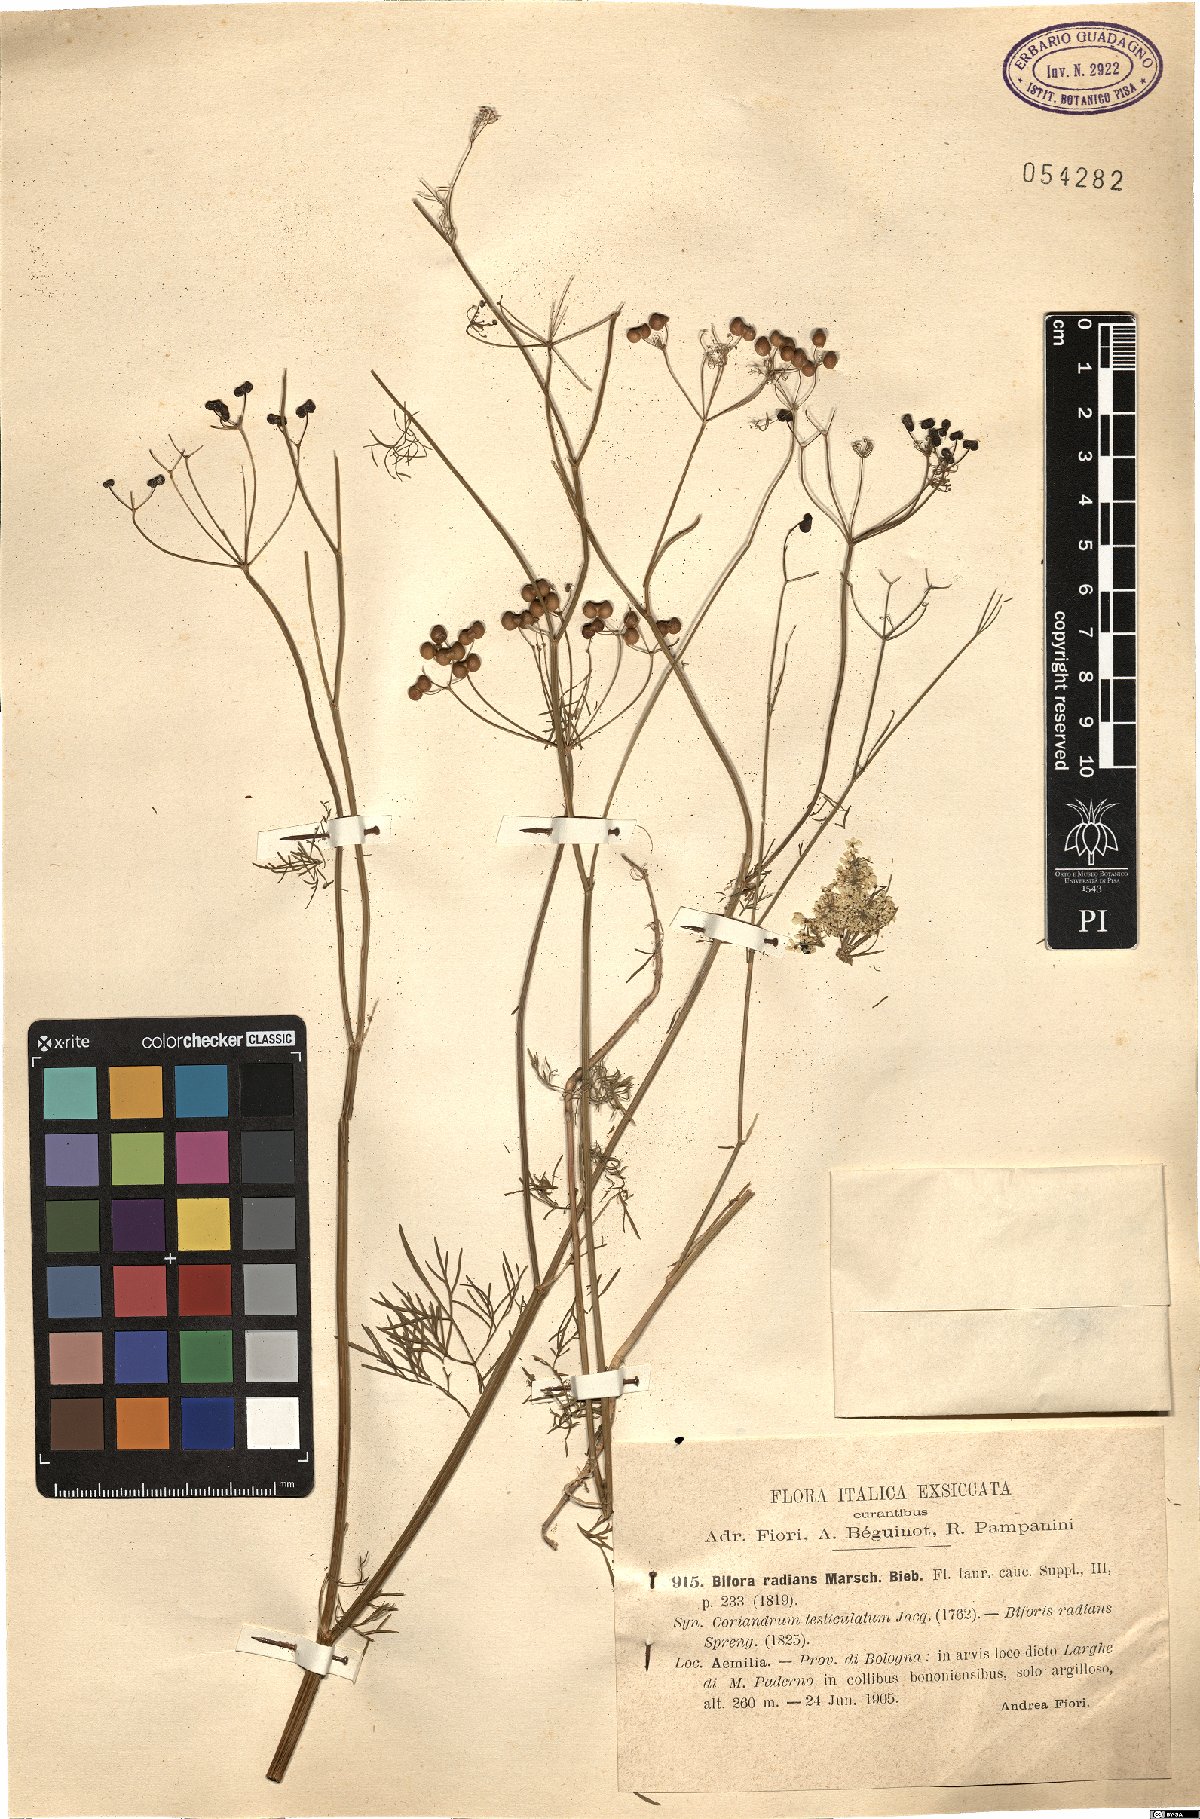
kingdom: Plantae
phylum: Tracheophyta
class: Magnoliopsida
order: Apiales
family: Apiaceae
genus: Bifora
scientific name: Bifora radians
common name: Wild bishop
